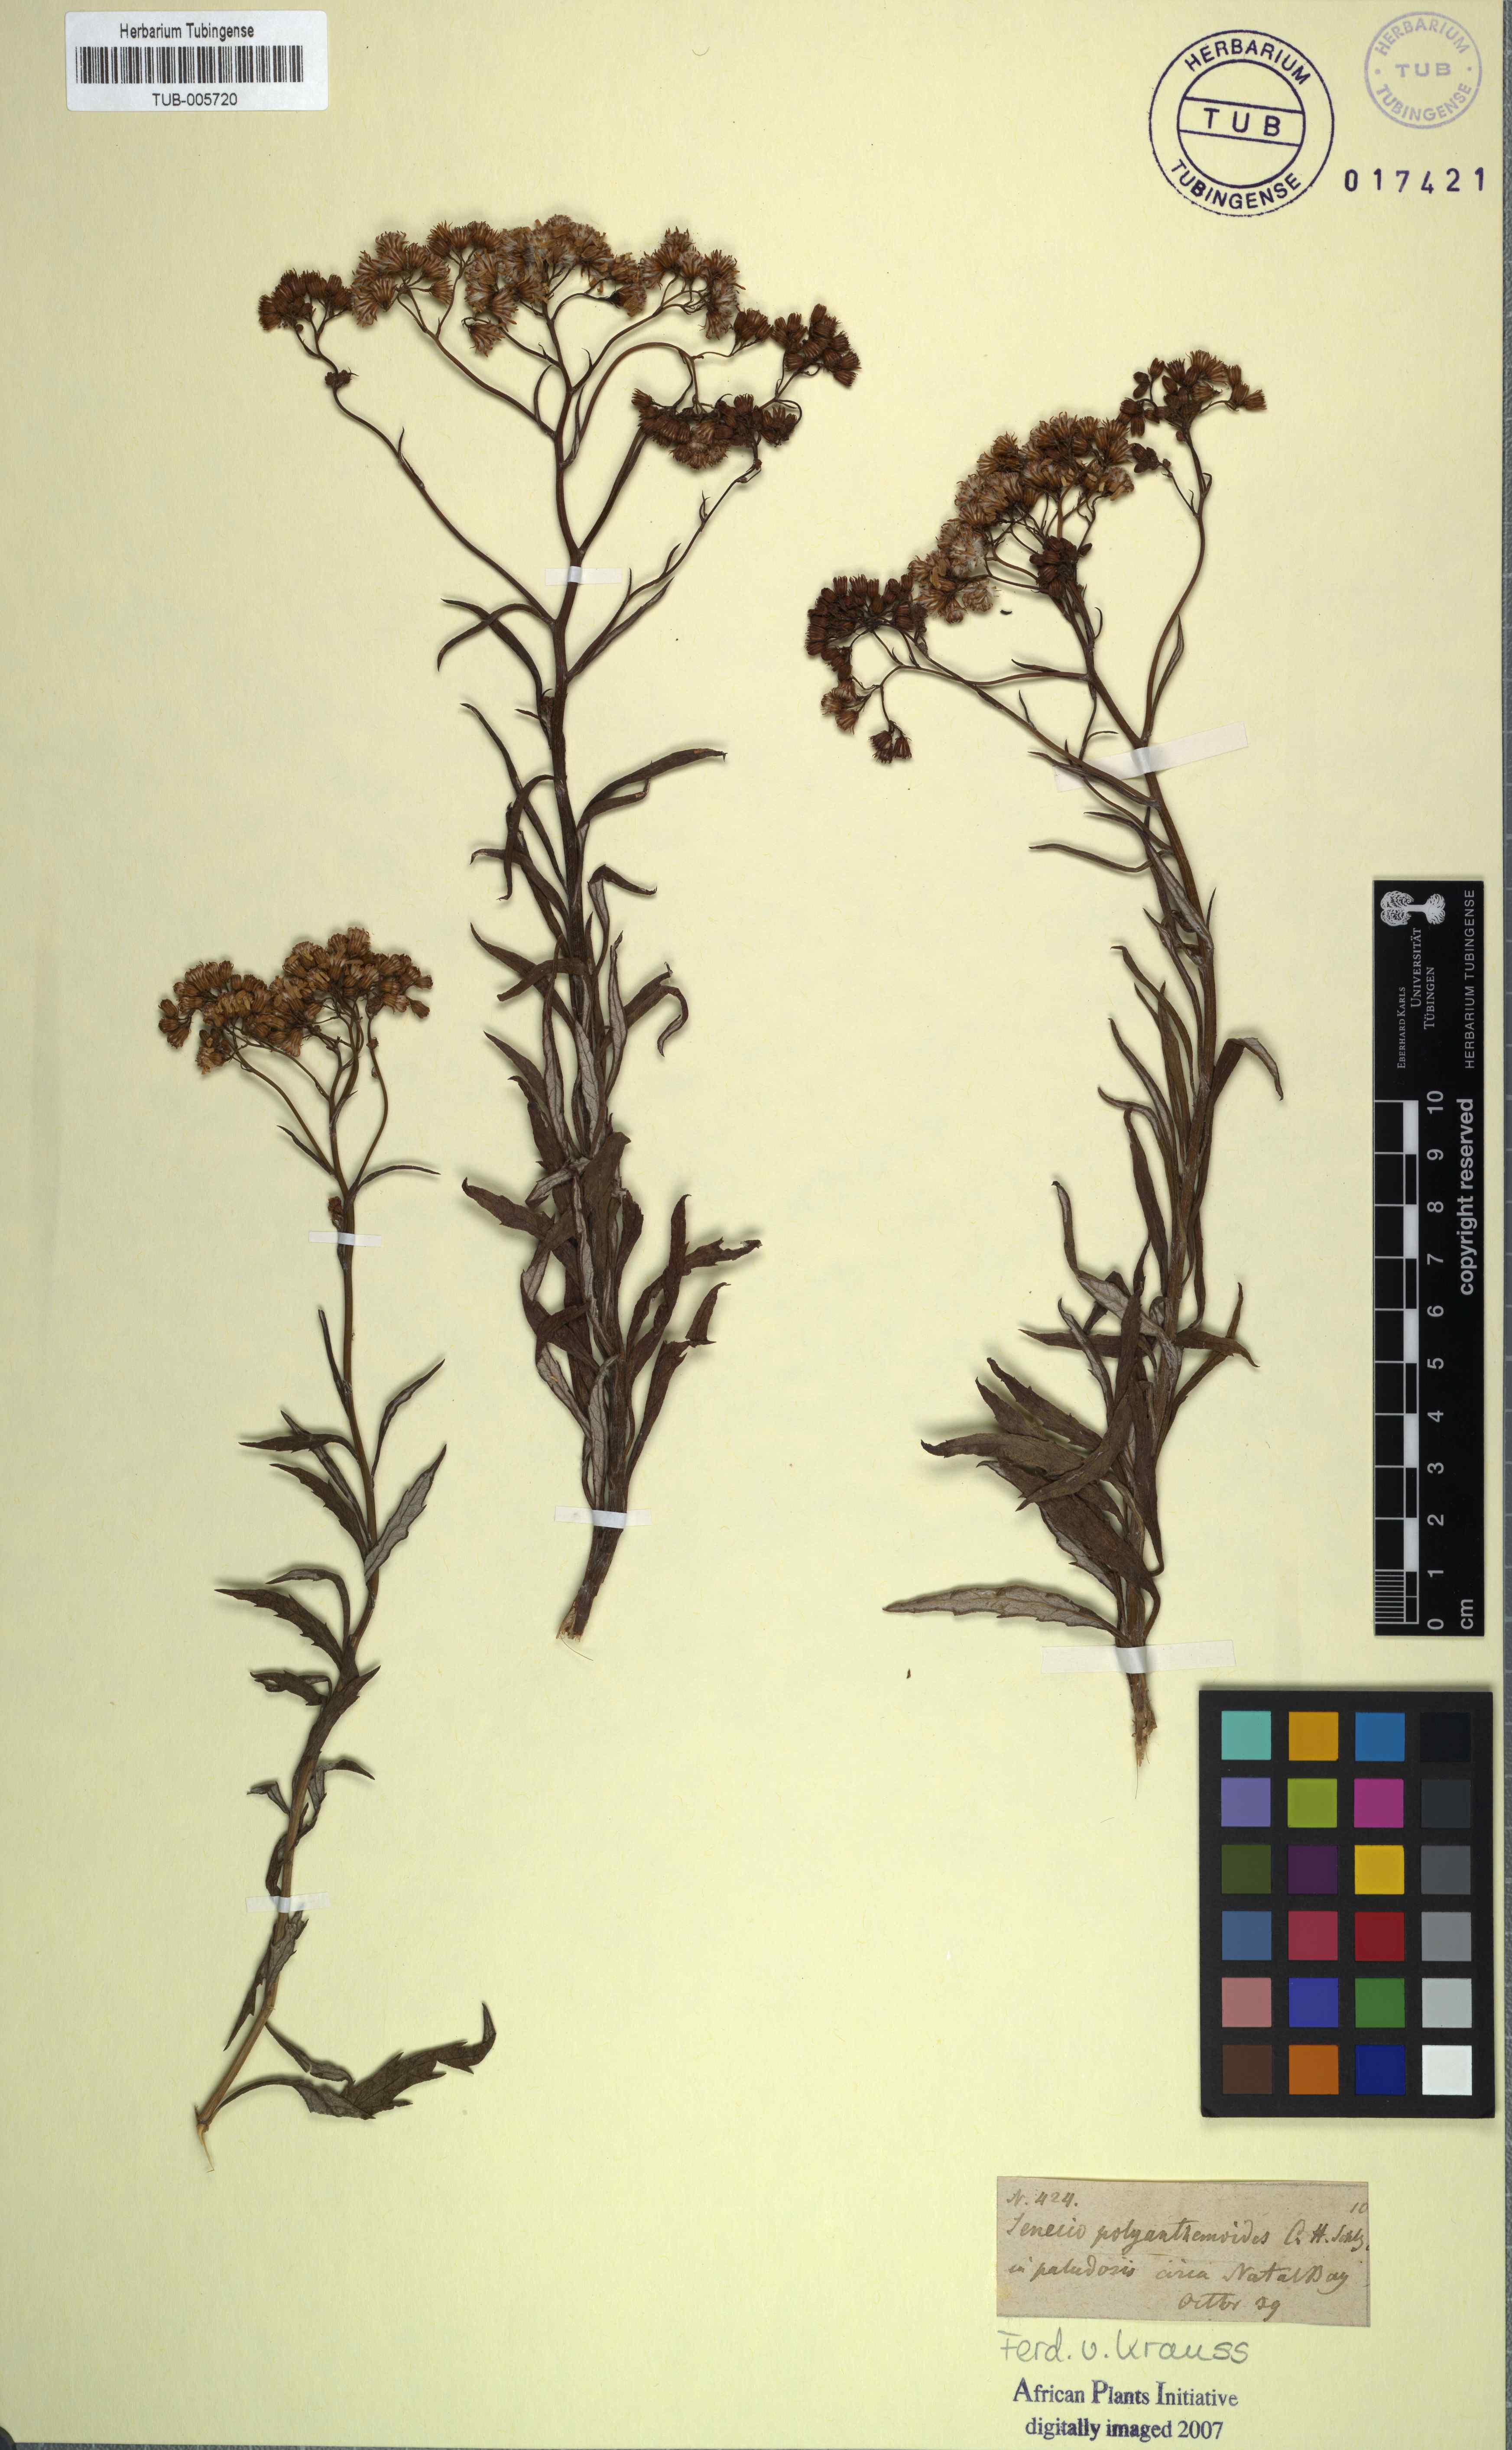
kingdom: Plantae
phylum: Tracheophyta
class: Magnoliopsida
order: Asterales
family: Asteraceae
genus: Senecio
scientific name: Senecio pterophorus
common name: Shoddy ragwort
